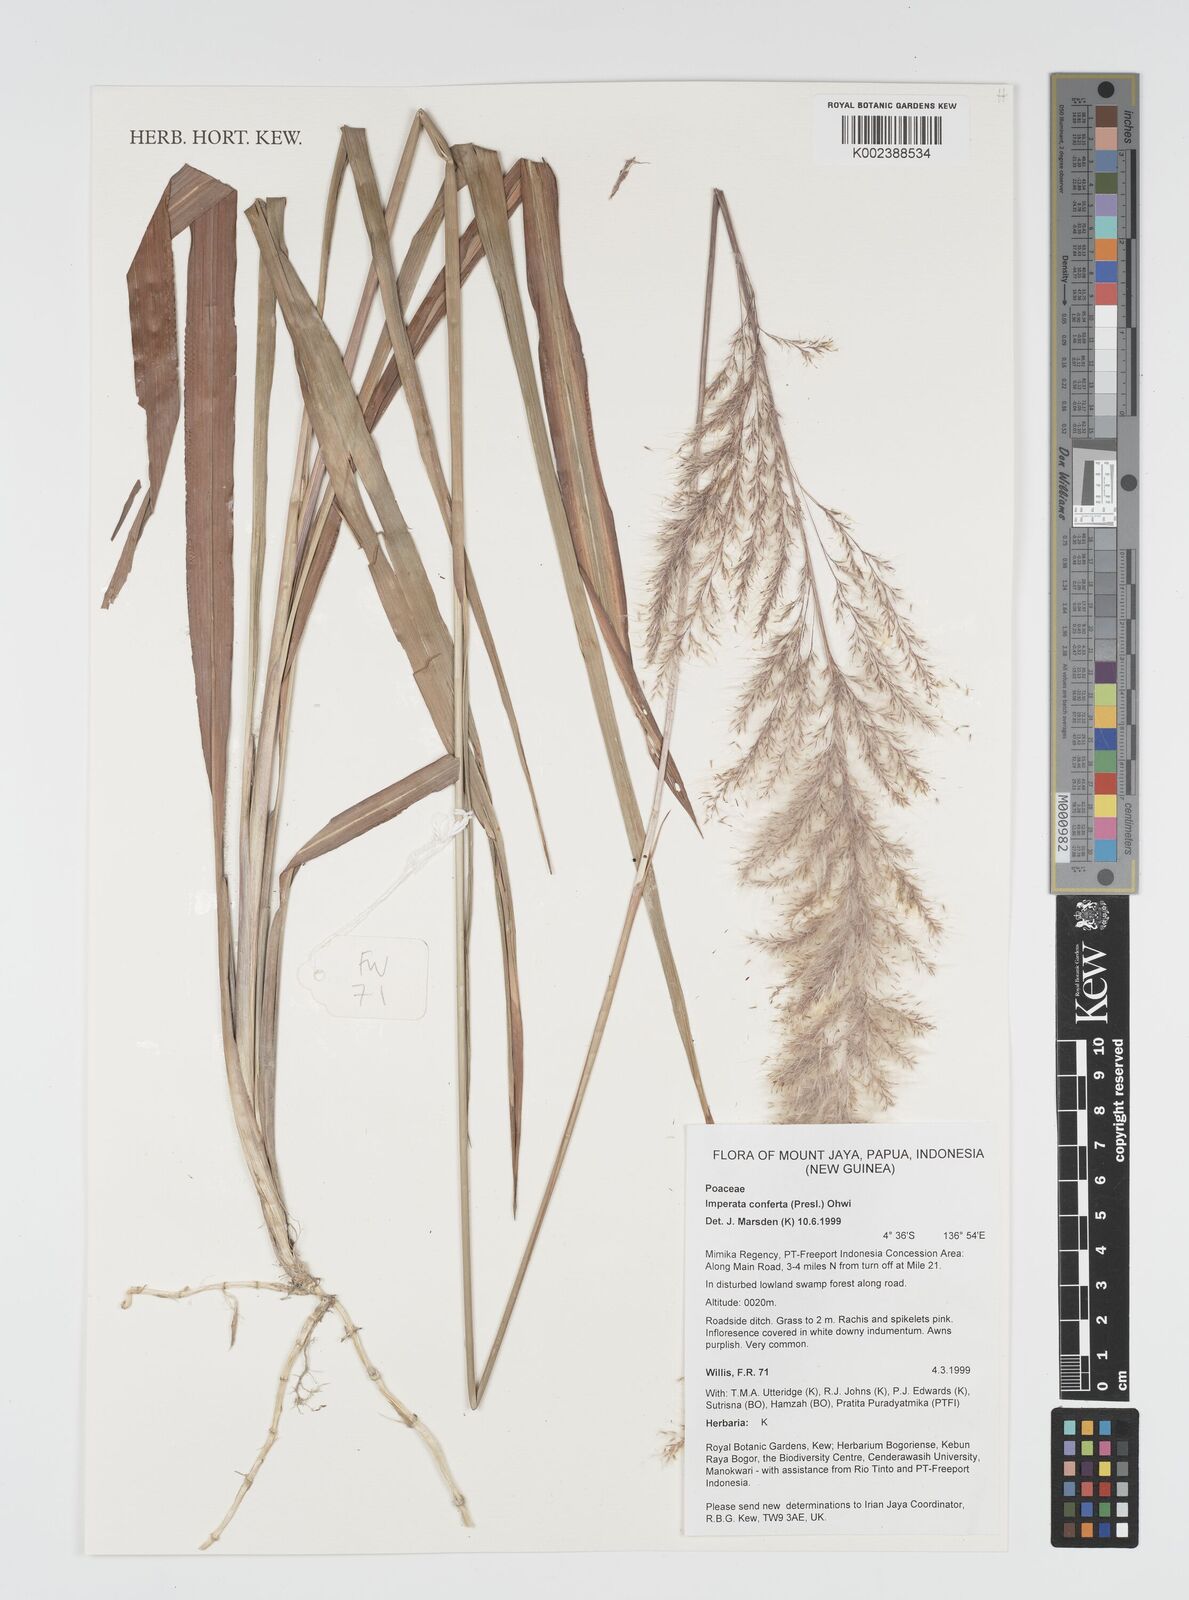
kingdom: Plantae
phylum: Tracheophyta
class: Liliopsida
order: Poales
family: Poaceae
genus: Imperata
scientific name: Imperata conferta
